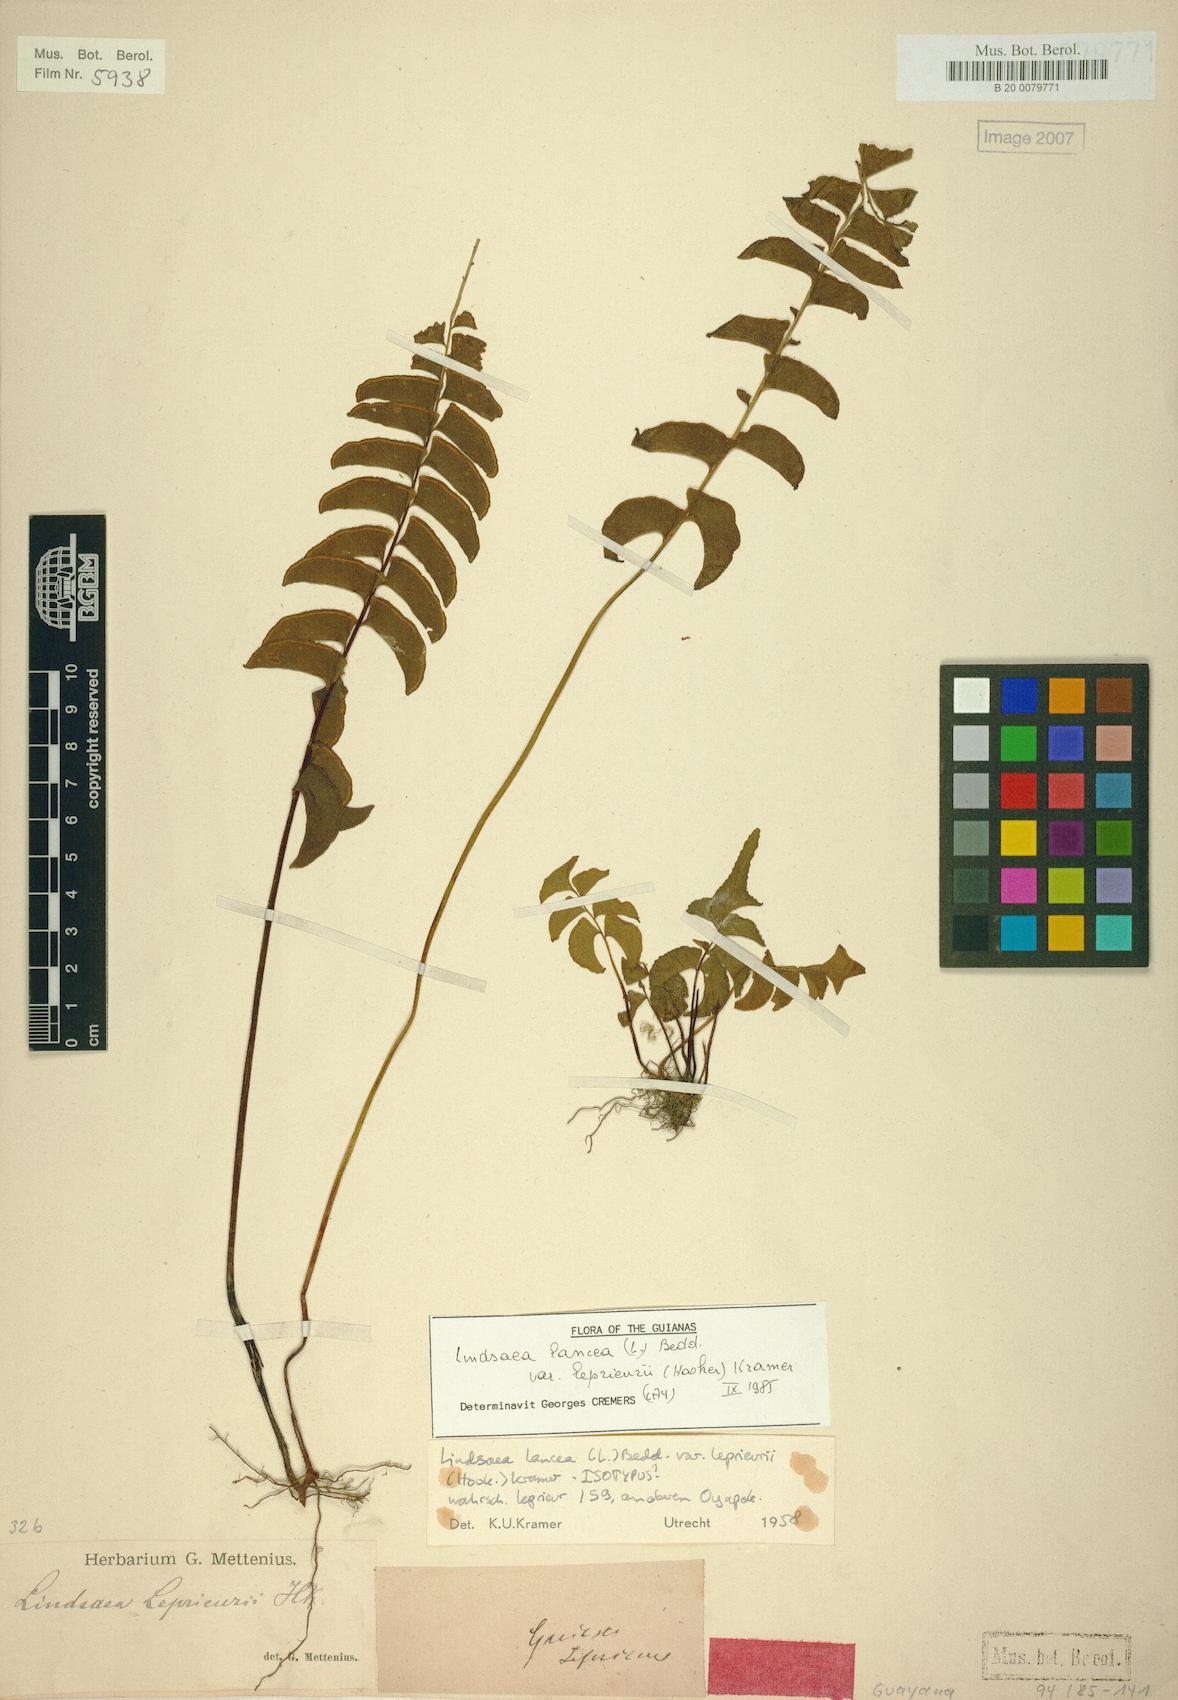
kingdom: Plantae
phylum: Tracheophyta
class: Polypodiopsida
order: Polypodiales
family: Lindsaeaceae
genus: Lindsaea
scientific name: Lindsaea lancea
